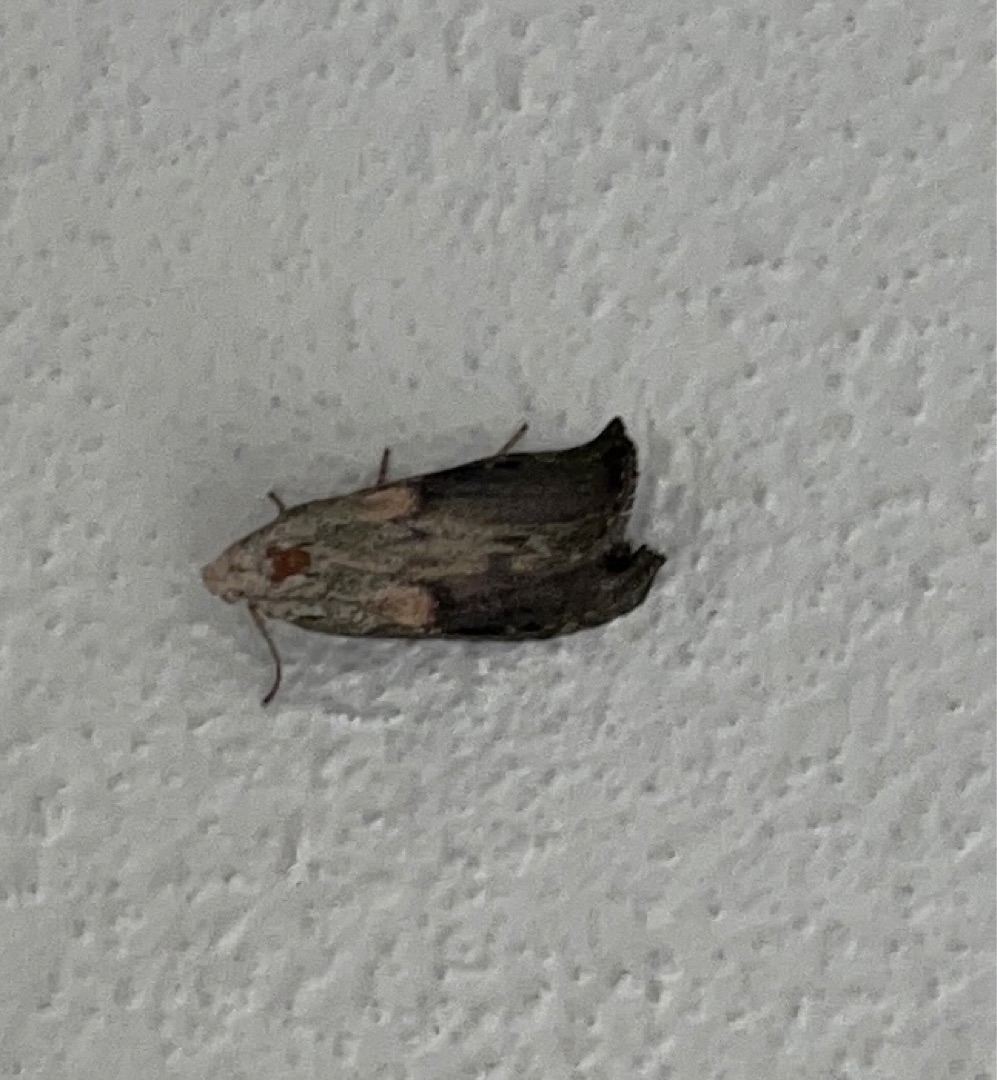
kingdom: Animalia
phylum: Arthropoda
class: Insecta
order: Lepidoptera
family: Pyralidae
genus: Aphomia
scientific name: Aphomia sociella
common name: Humlevoksmøl
